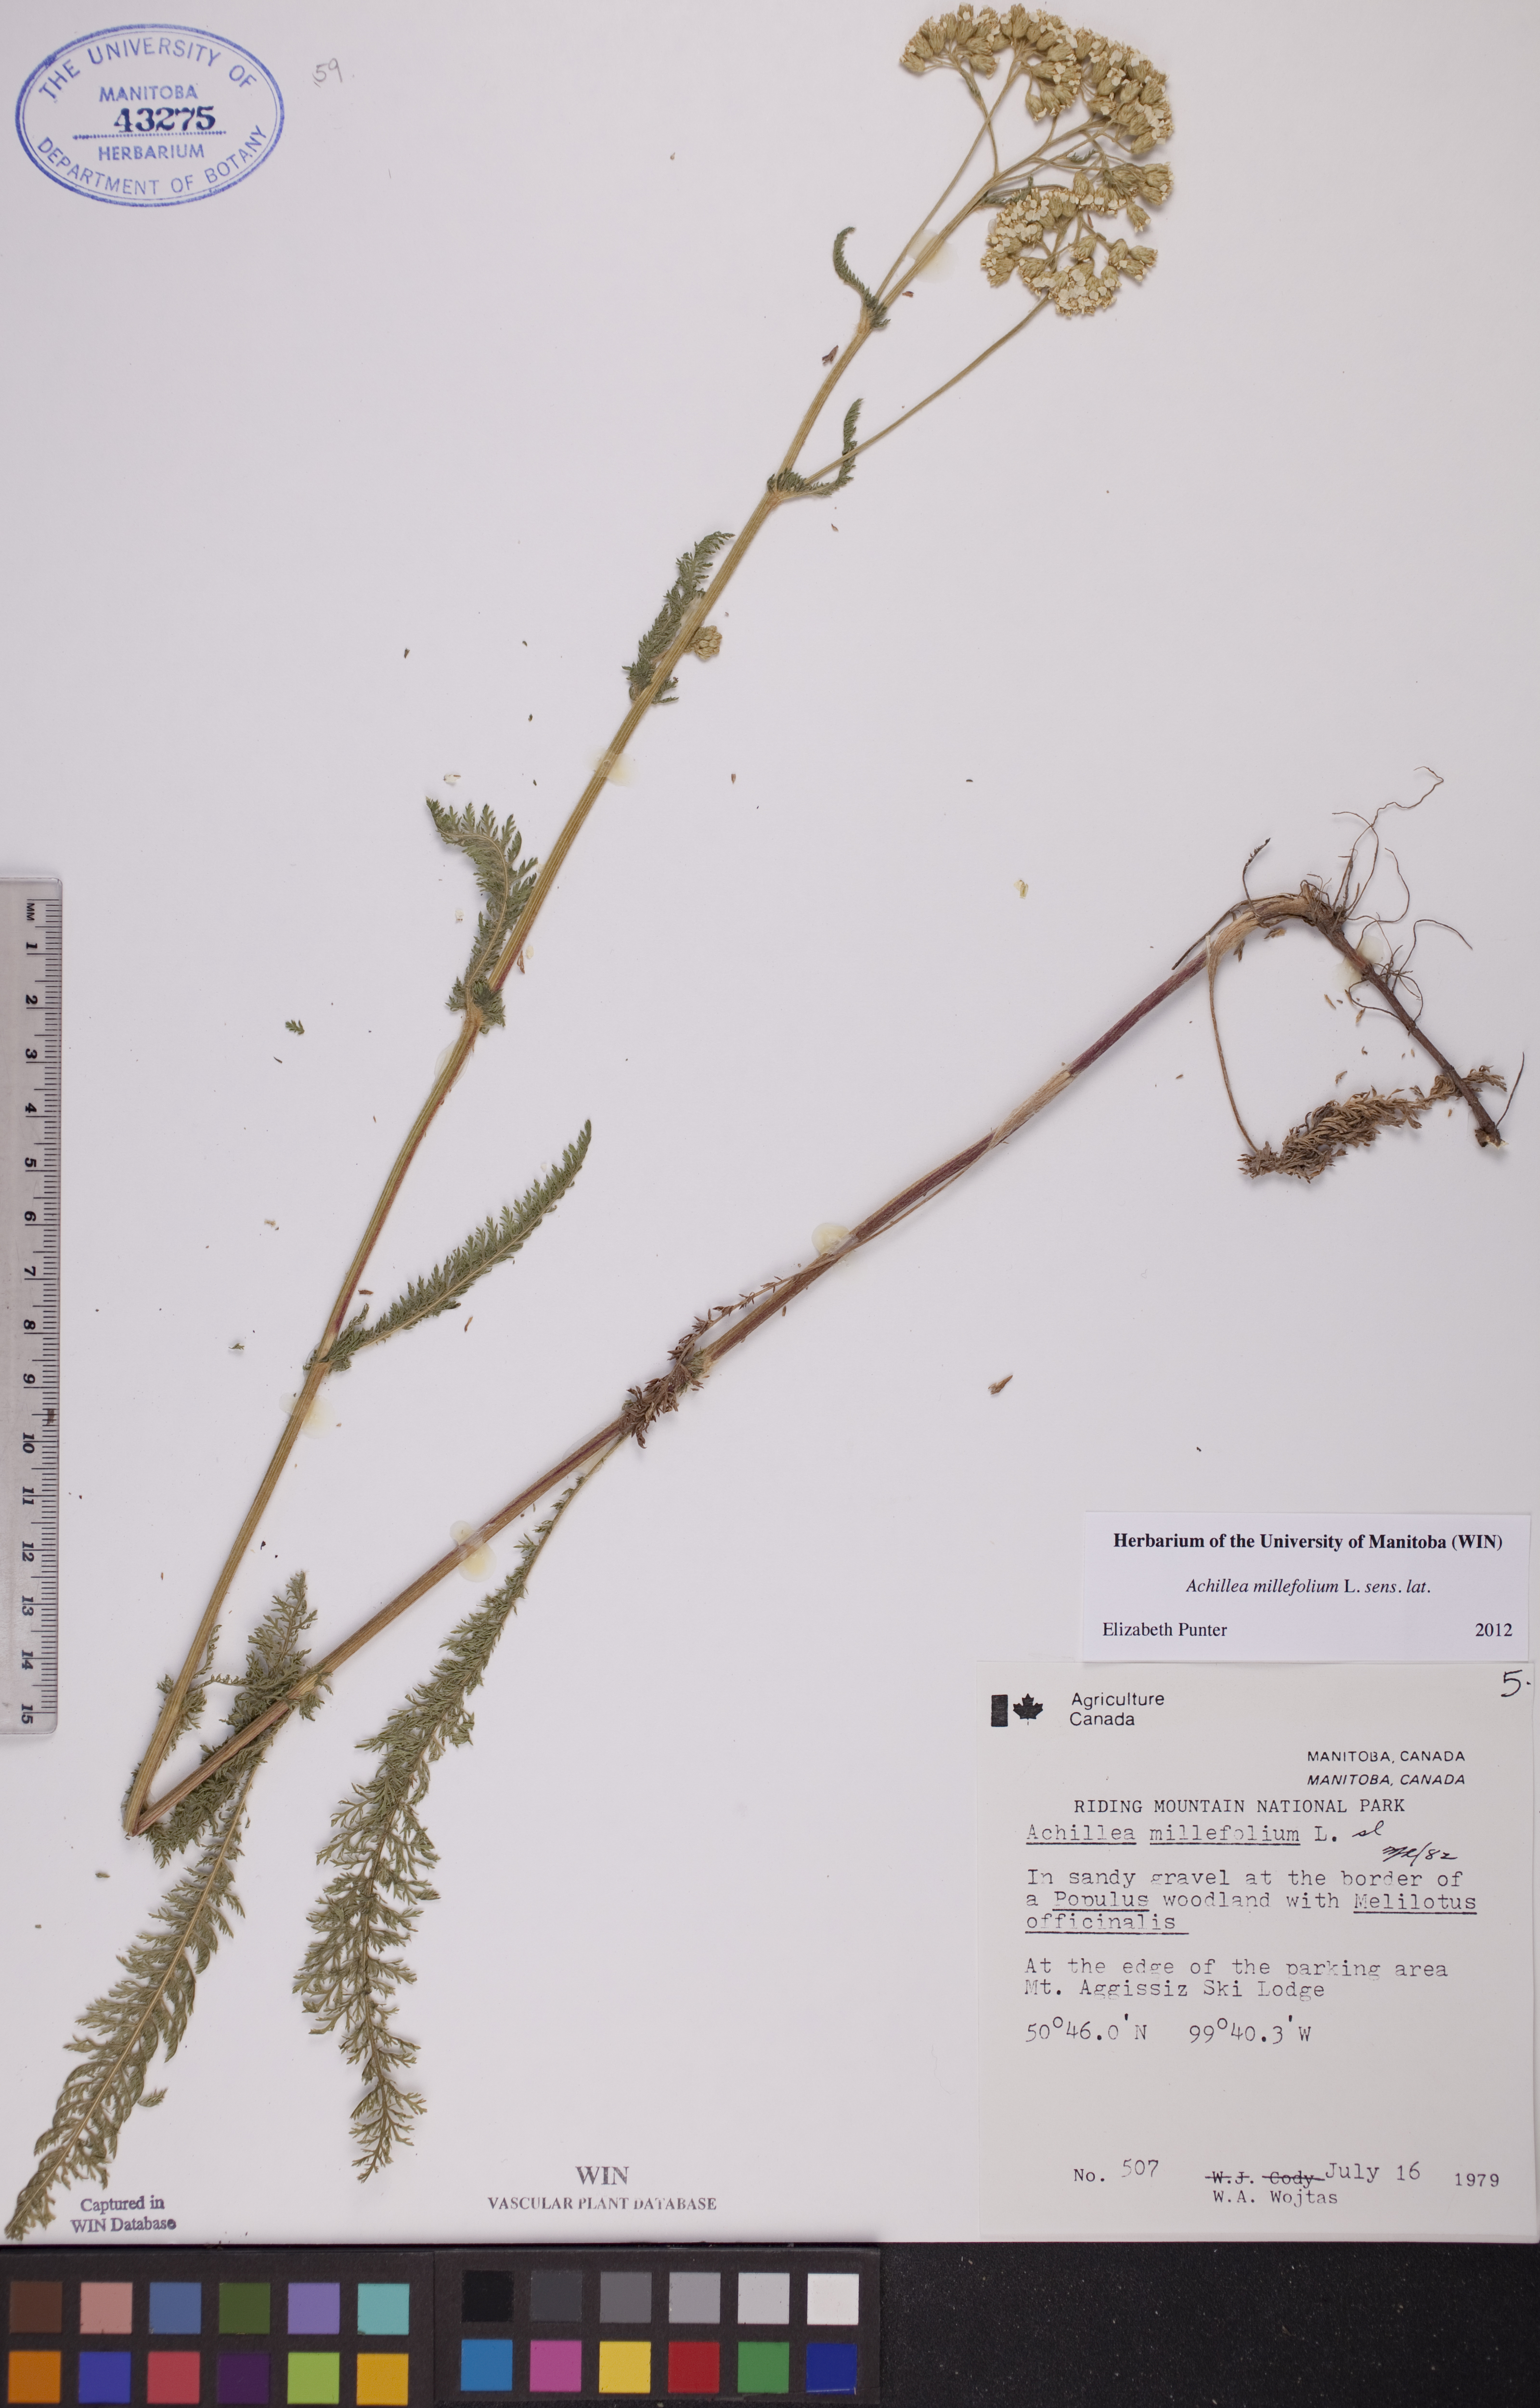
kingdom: Plantae
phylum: Tracheophyta
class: Magnoliopsida
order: Asterales
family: Asteraceae
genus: Achillea
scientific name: Achillea millefolium
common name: Yarrow
